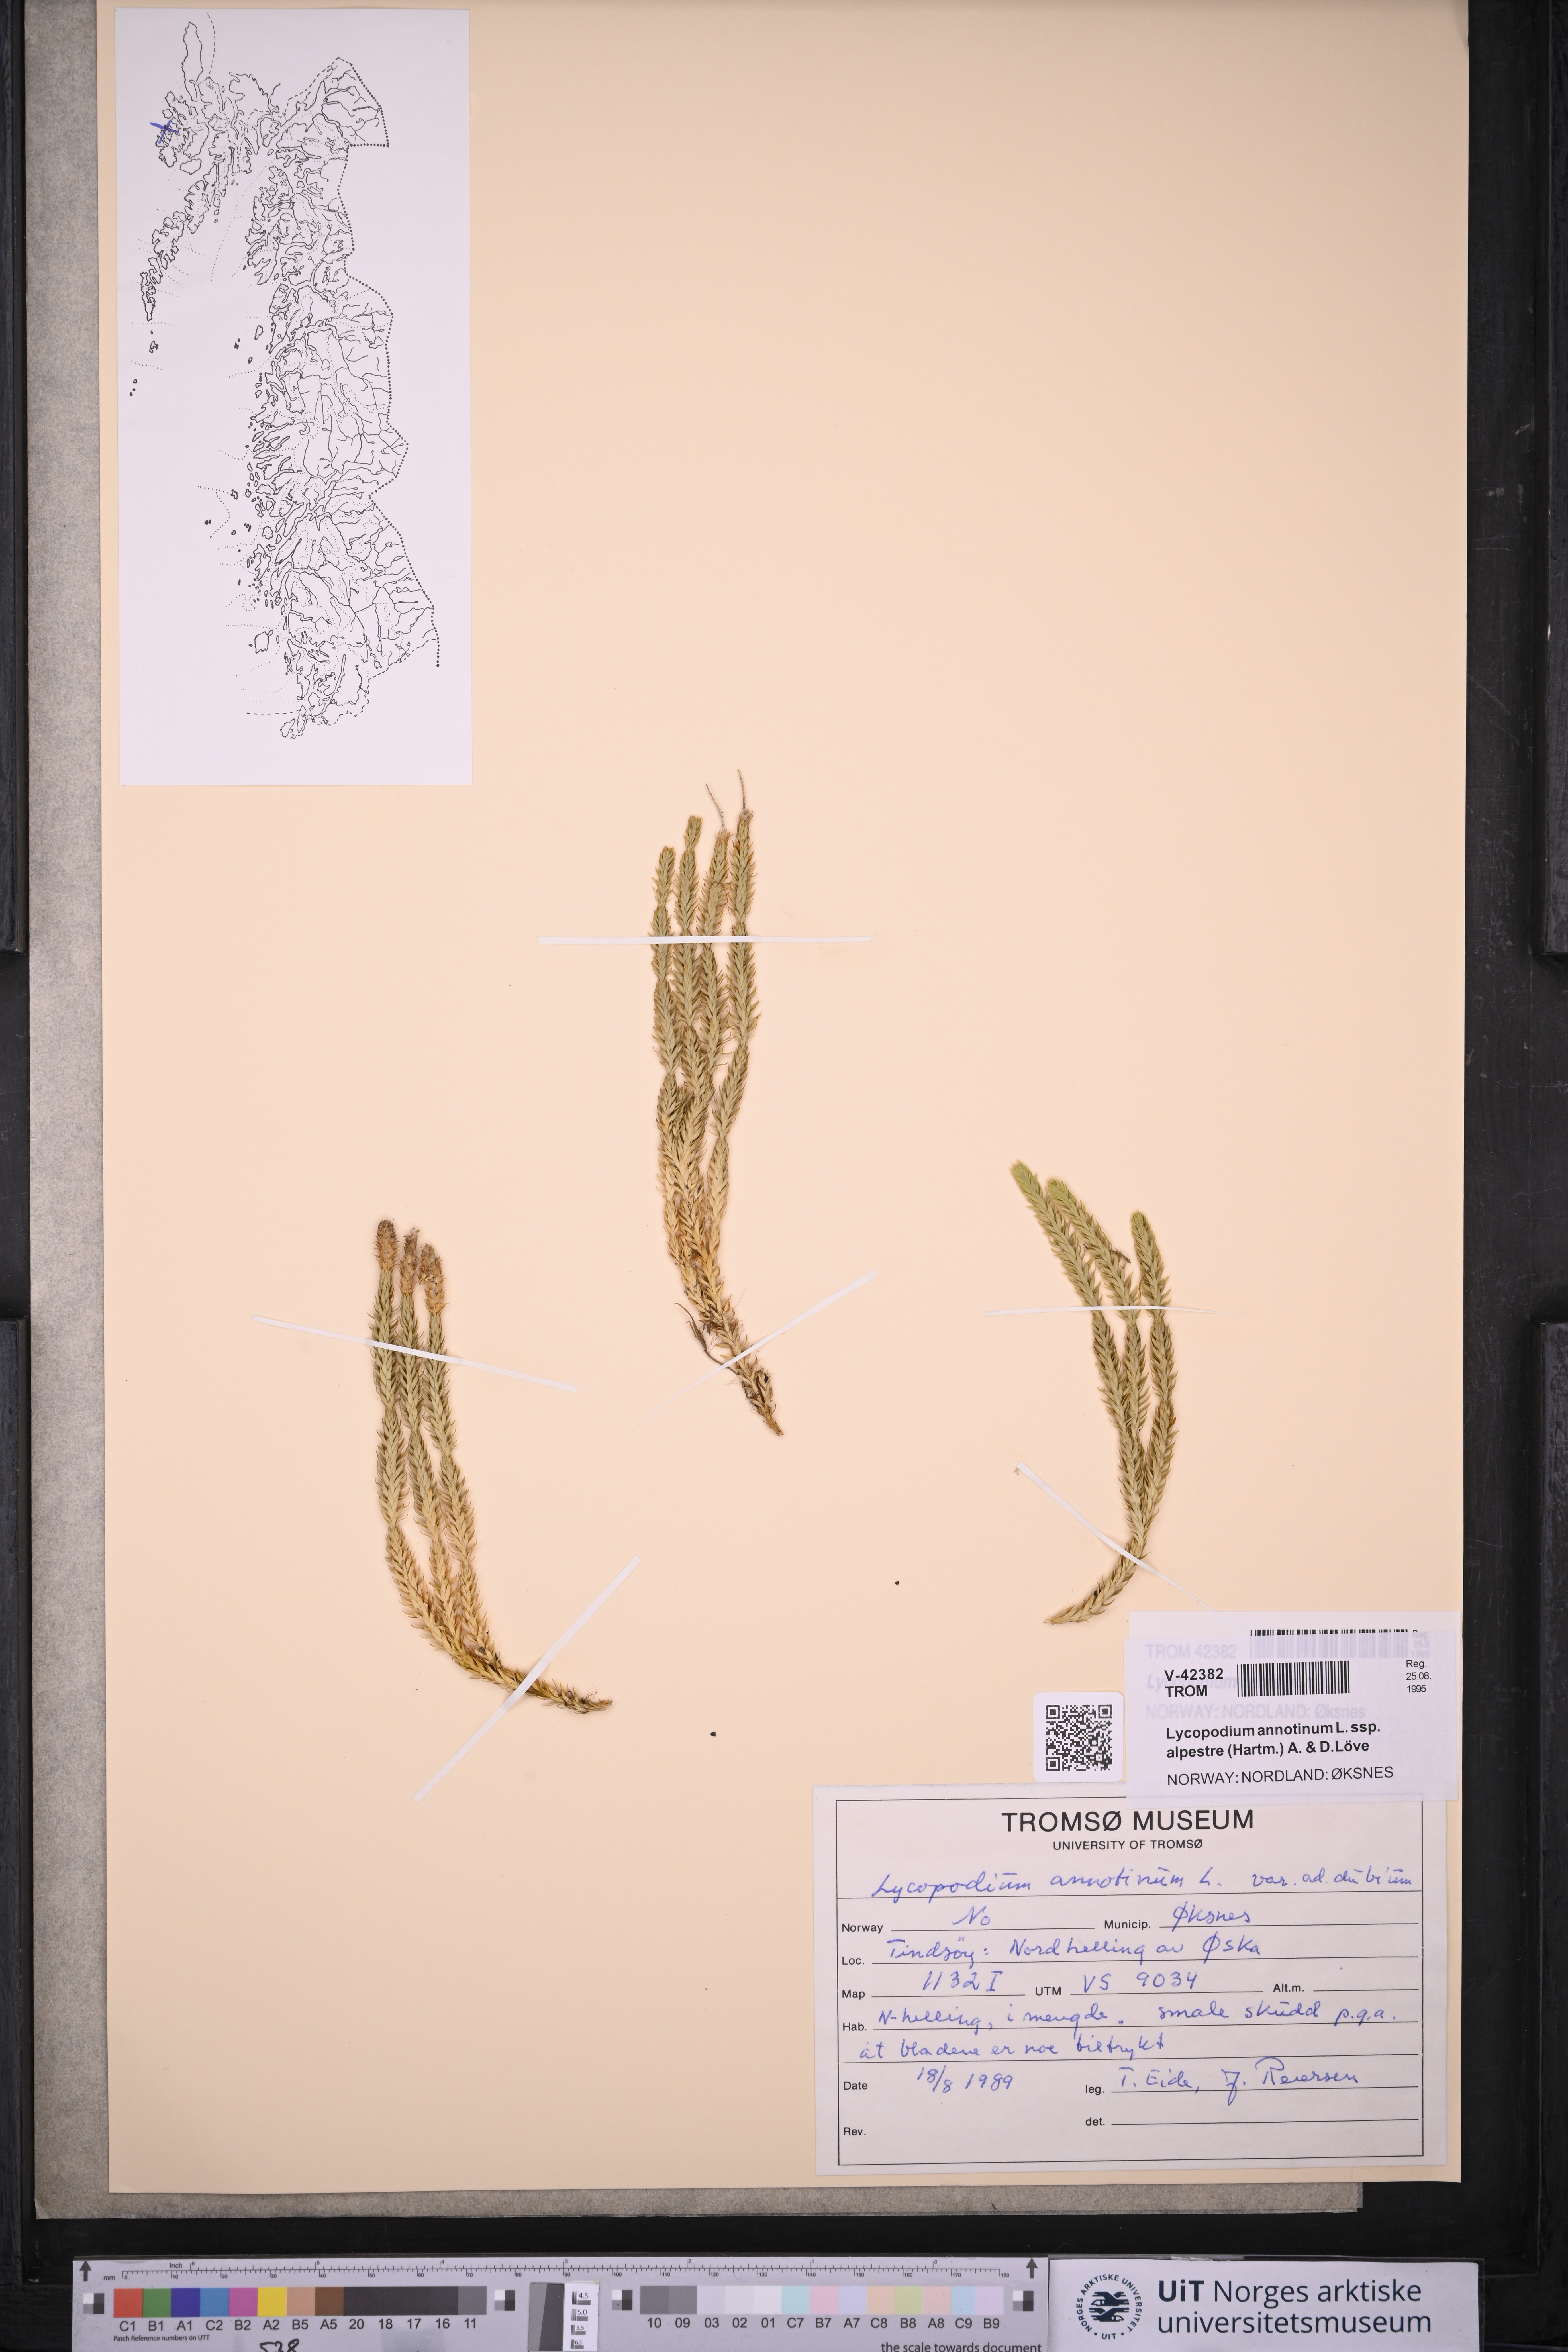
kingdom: Plantae
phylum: Tracheophyta
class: Lycopodiopsida
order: Lycopodiales
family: Lycopodiaceae
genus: Spinulum
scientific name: Spinulum annotinum
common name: Interrupted club-moss
